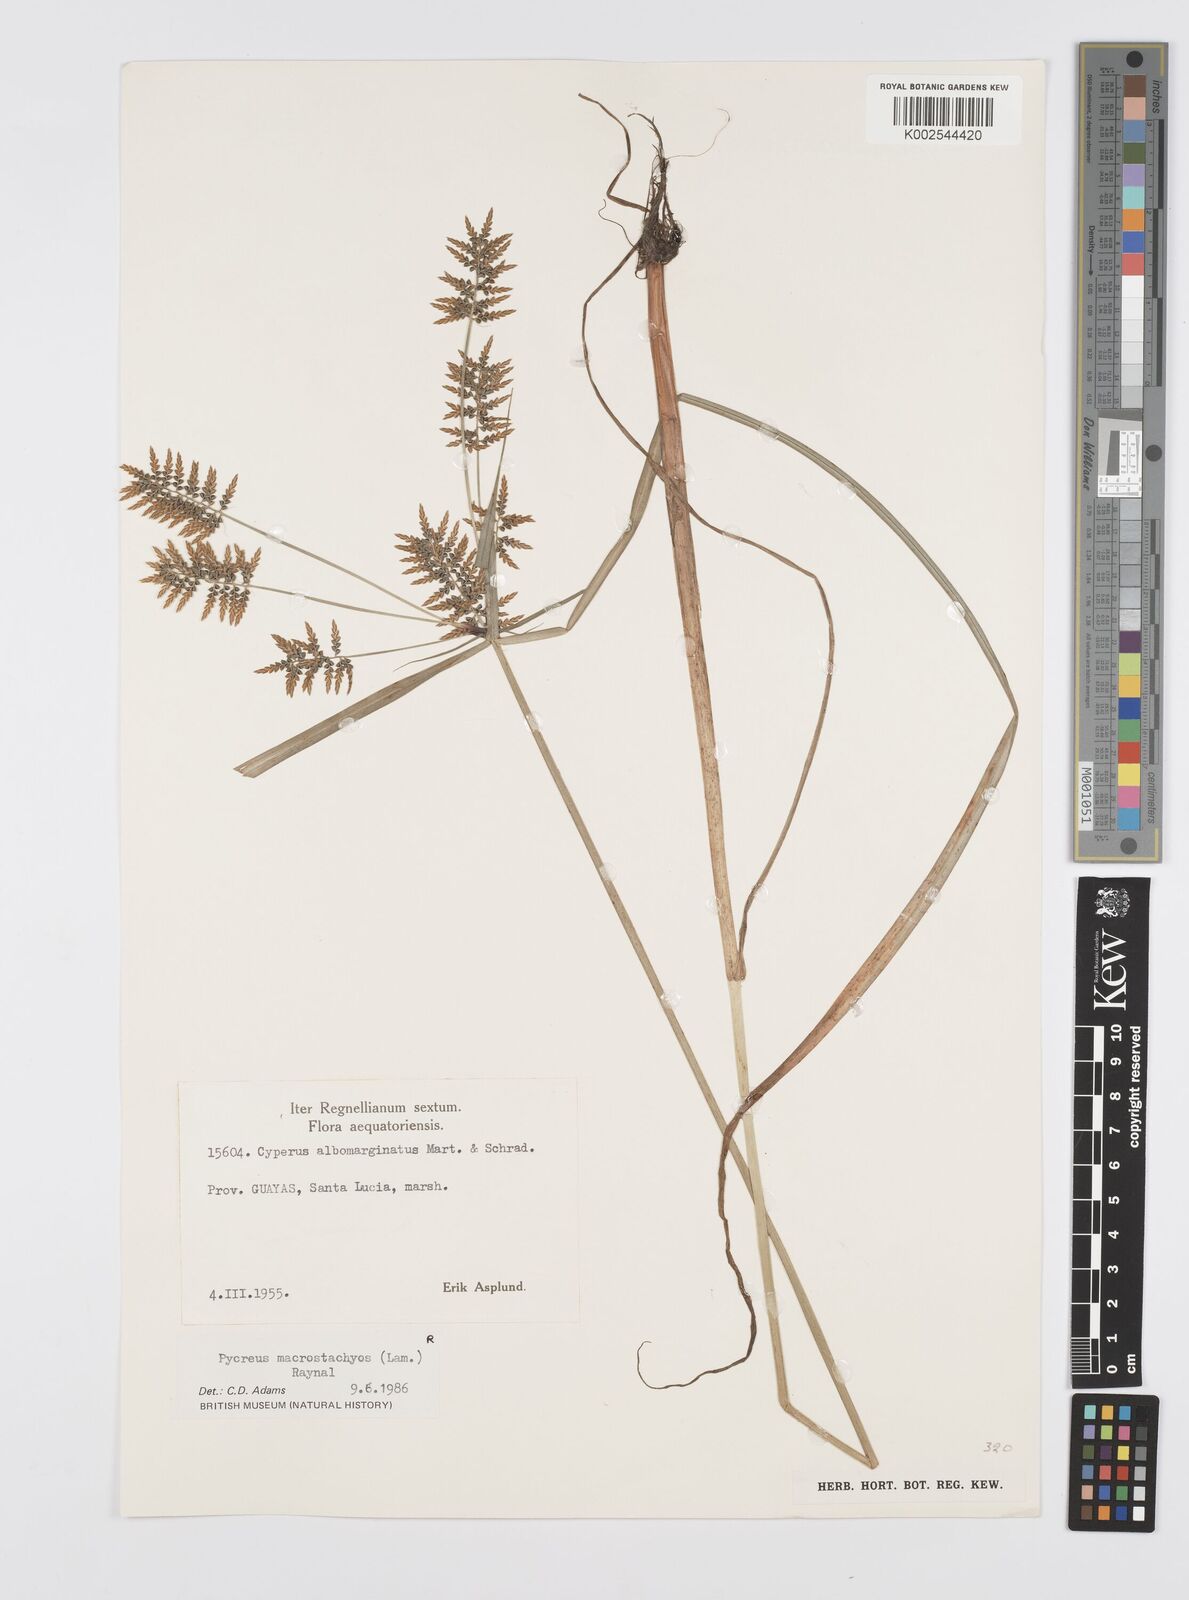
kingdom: Plantae
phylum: Tracheophyta
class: Liliopsida
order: Poales
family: Cyperaceae
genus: Cyperus
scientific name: Cyperus macrostachyos
